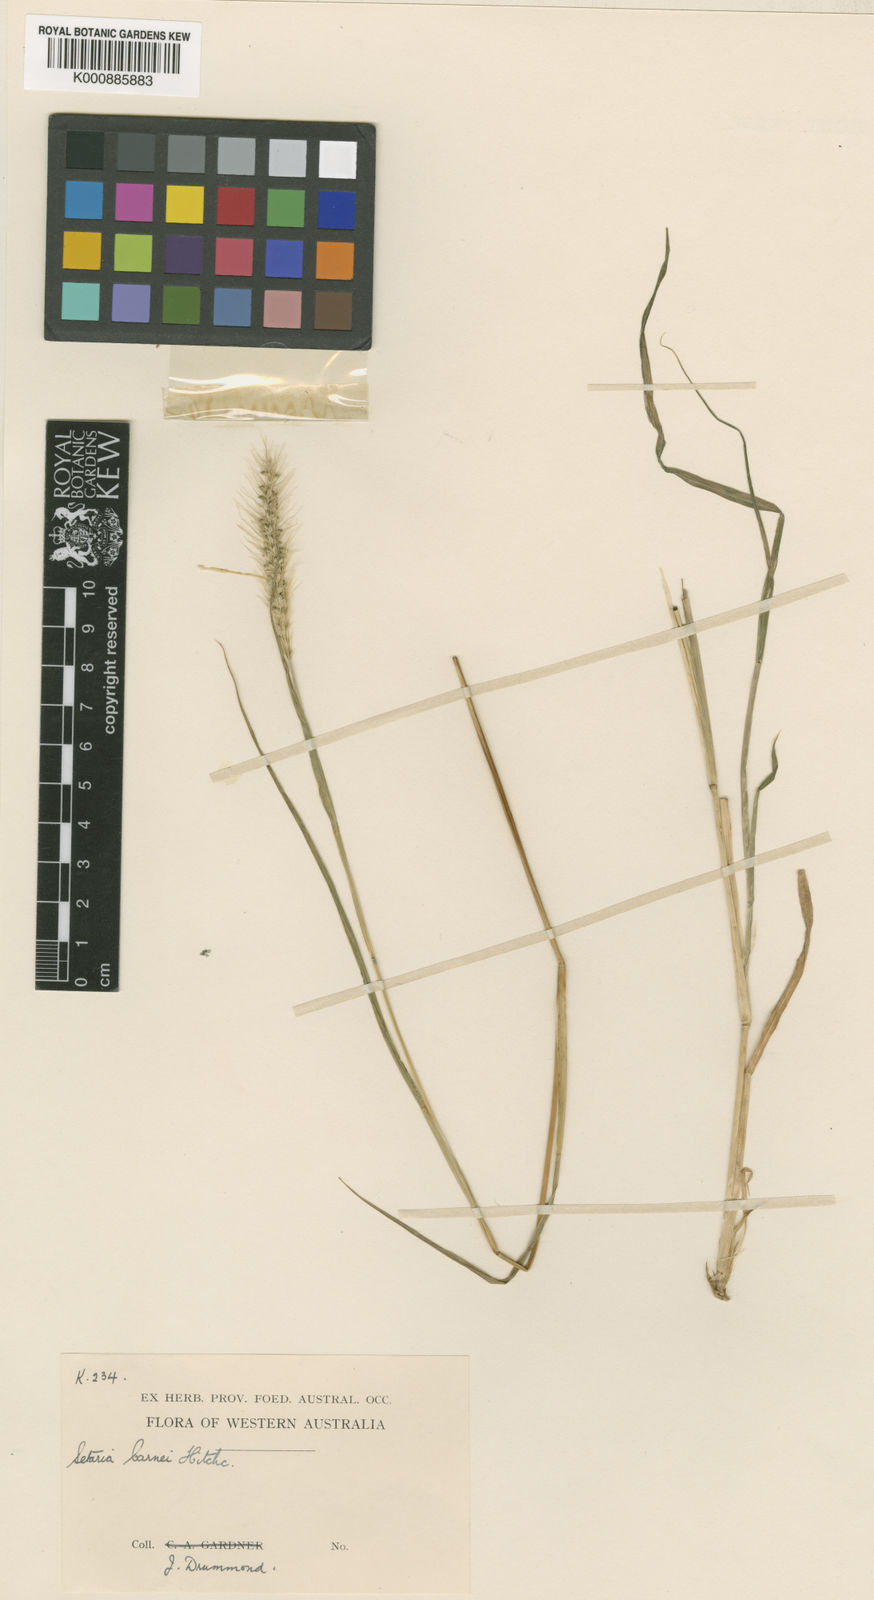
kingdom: Plantae
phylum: Tracheophyta
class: Liliopsida
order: Poales
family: Poaceae
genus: Setaria
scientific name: Setaria verticillata
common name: Hooked bristlegrass
